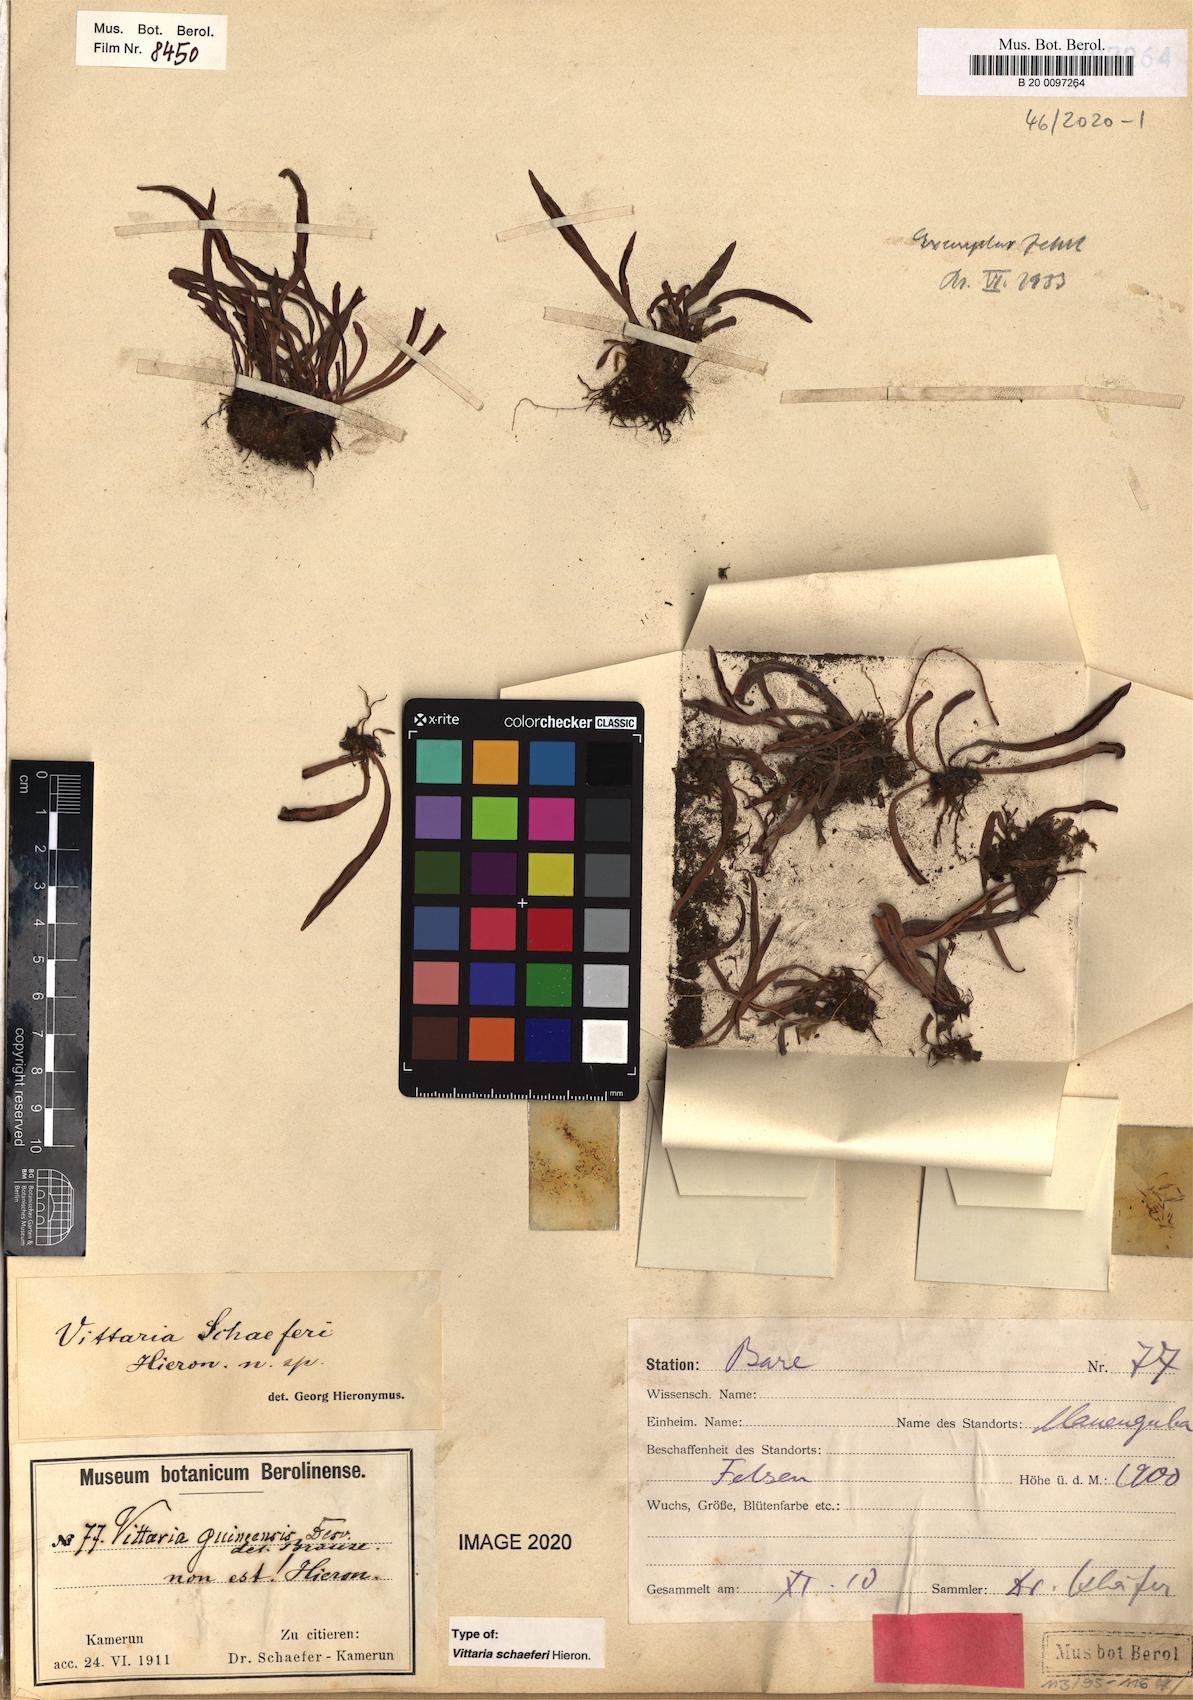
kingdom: Plantae
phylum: Tracheophyta
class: Polypodiopsida
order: Polypodiales
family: Pteridaceae
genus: Haplopteris
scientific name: Haplopteris schaeferi
